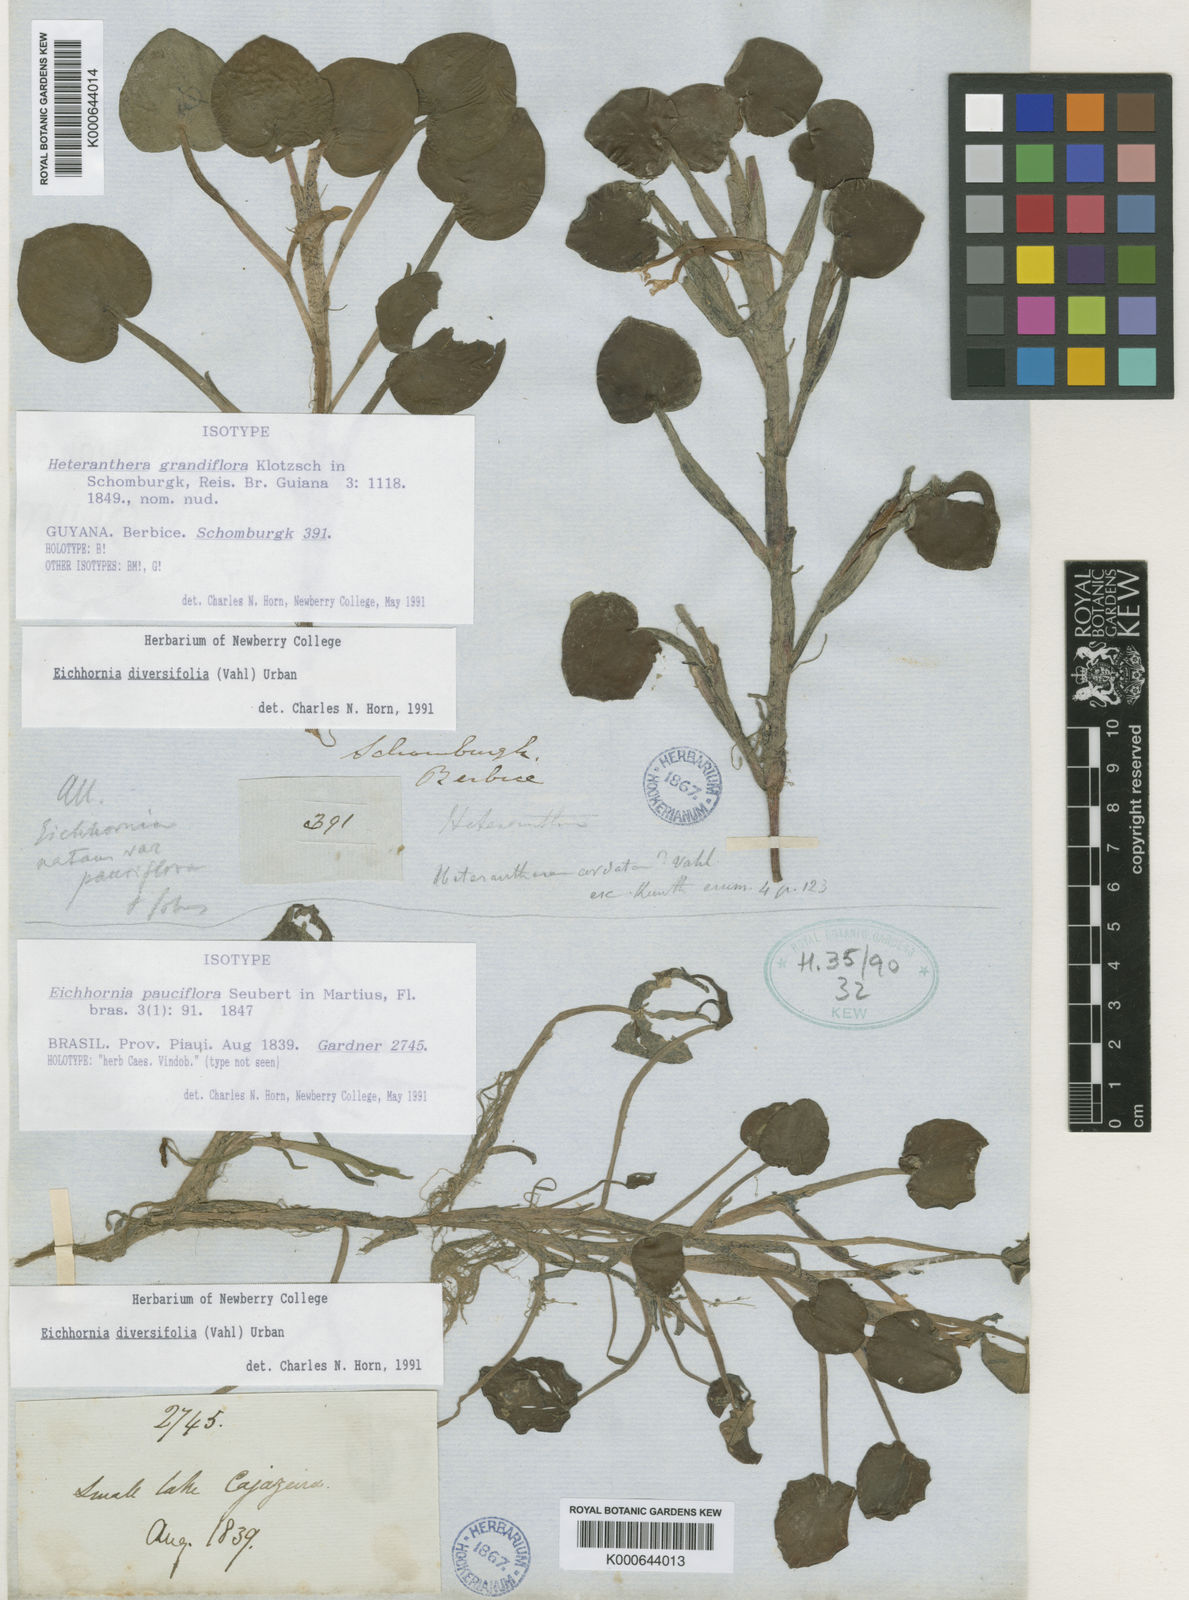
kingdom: Plantae
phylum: Tracheophyta
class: Liliopsida
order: Commelinales
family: Pontederiaceae
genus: Pontederia
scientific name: Pontederia diversifolia
